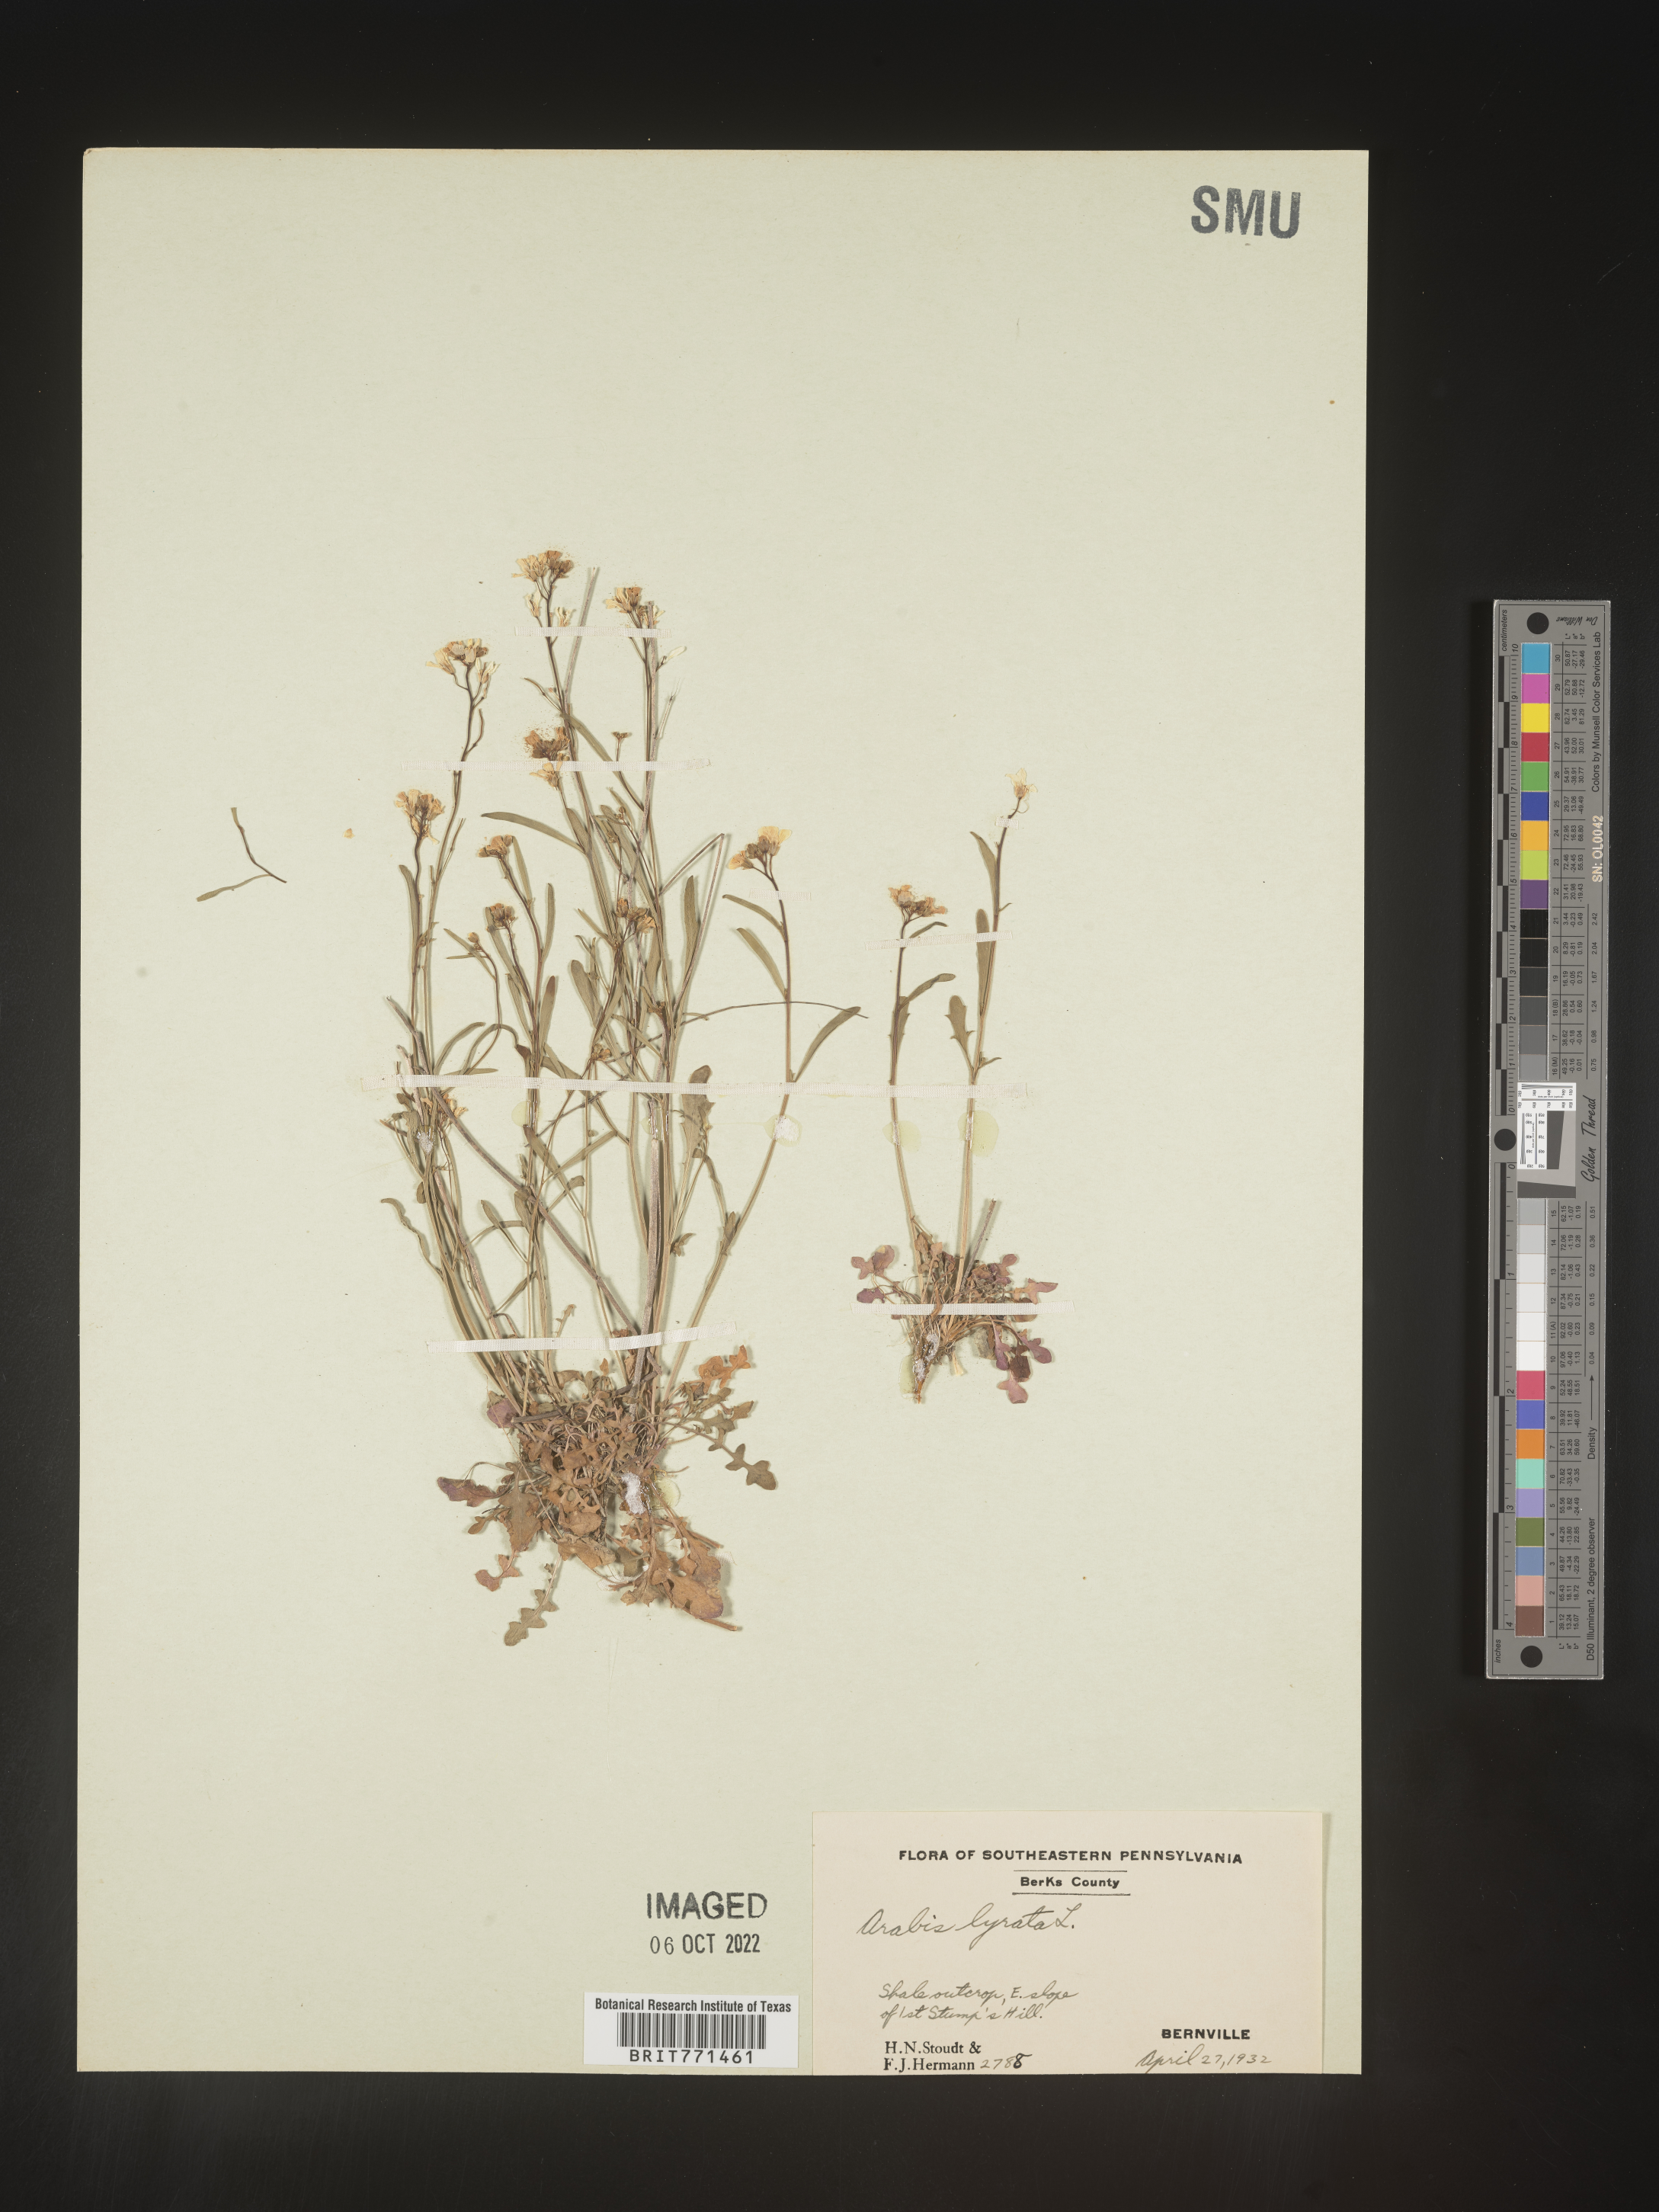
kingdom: Plantae
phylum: Tracheophyta
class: Magnoliopsida
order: Brassicales
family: Brassicaceae
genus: Arabidopsis
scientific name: Arabidopsis lyrata
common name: Lyrate rockcress
